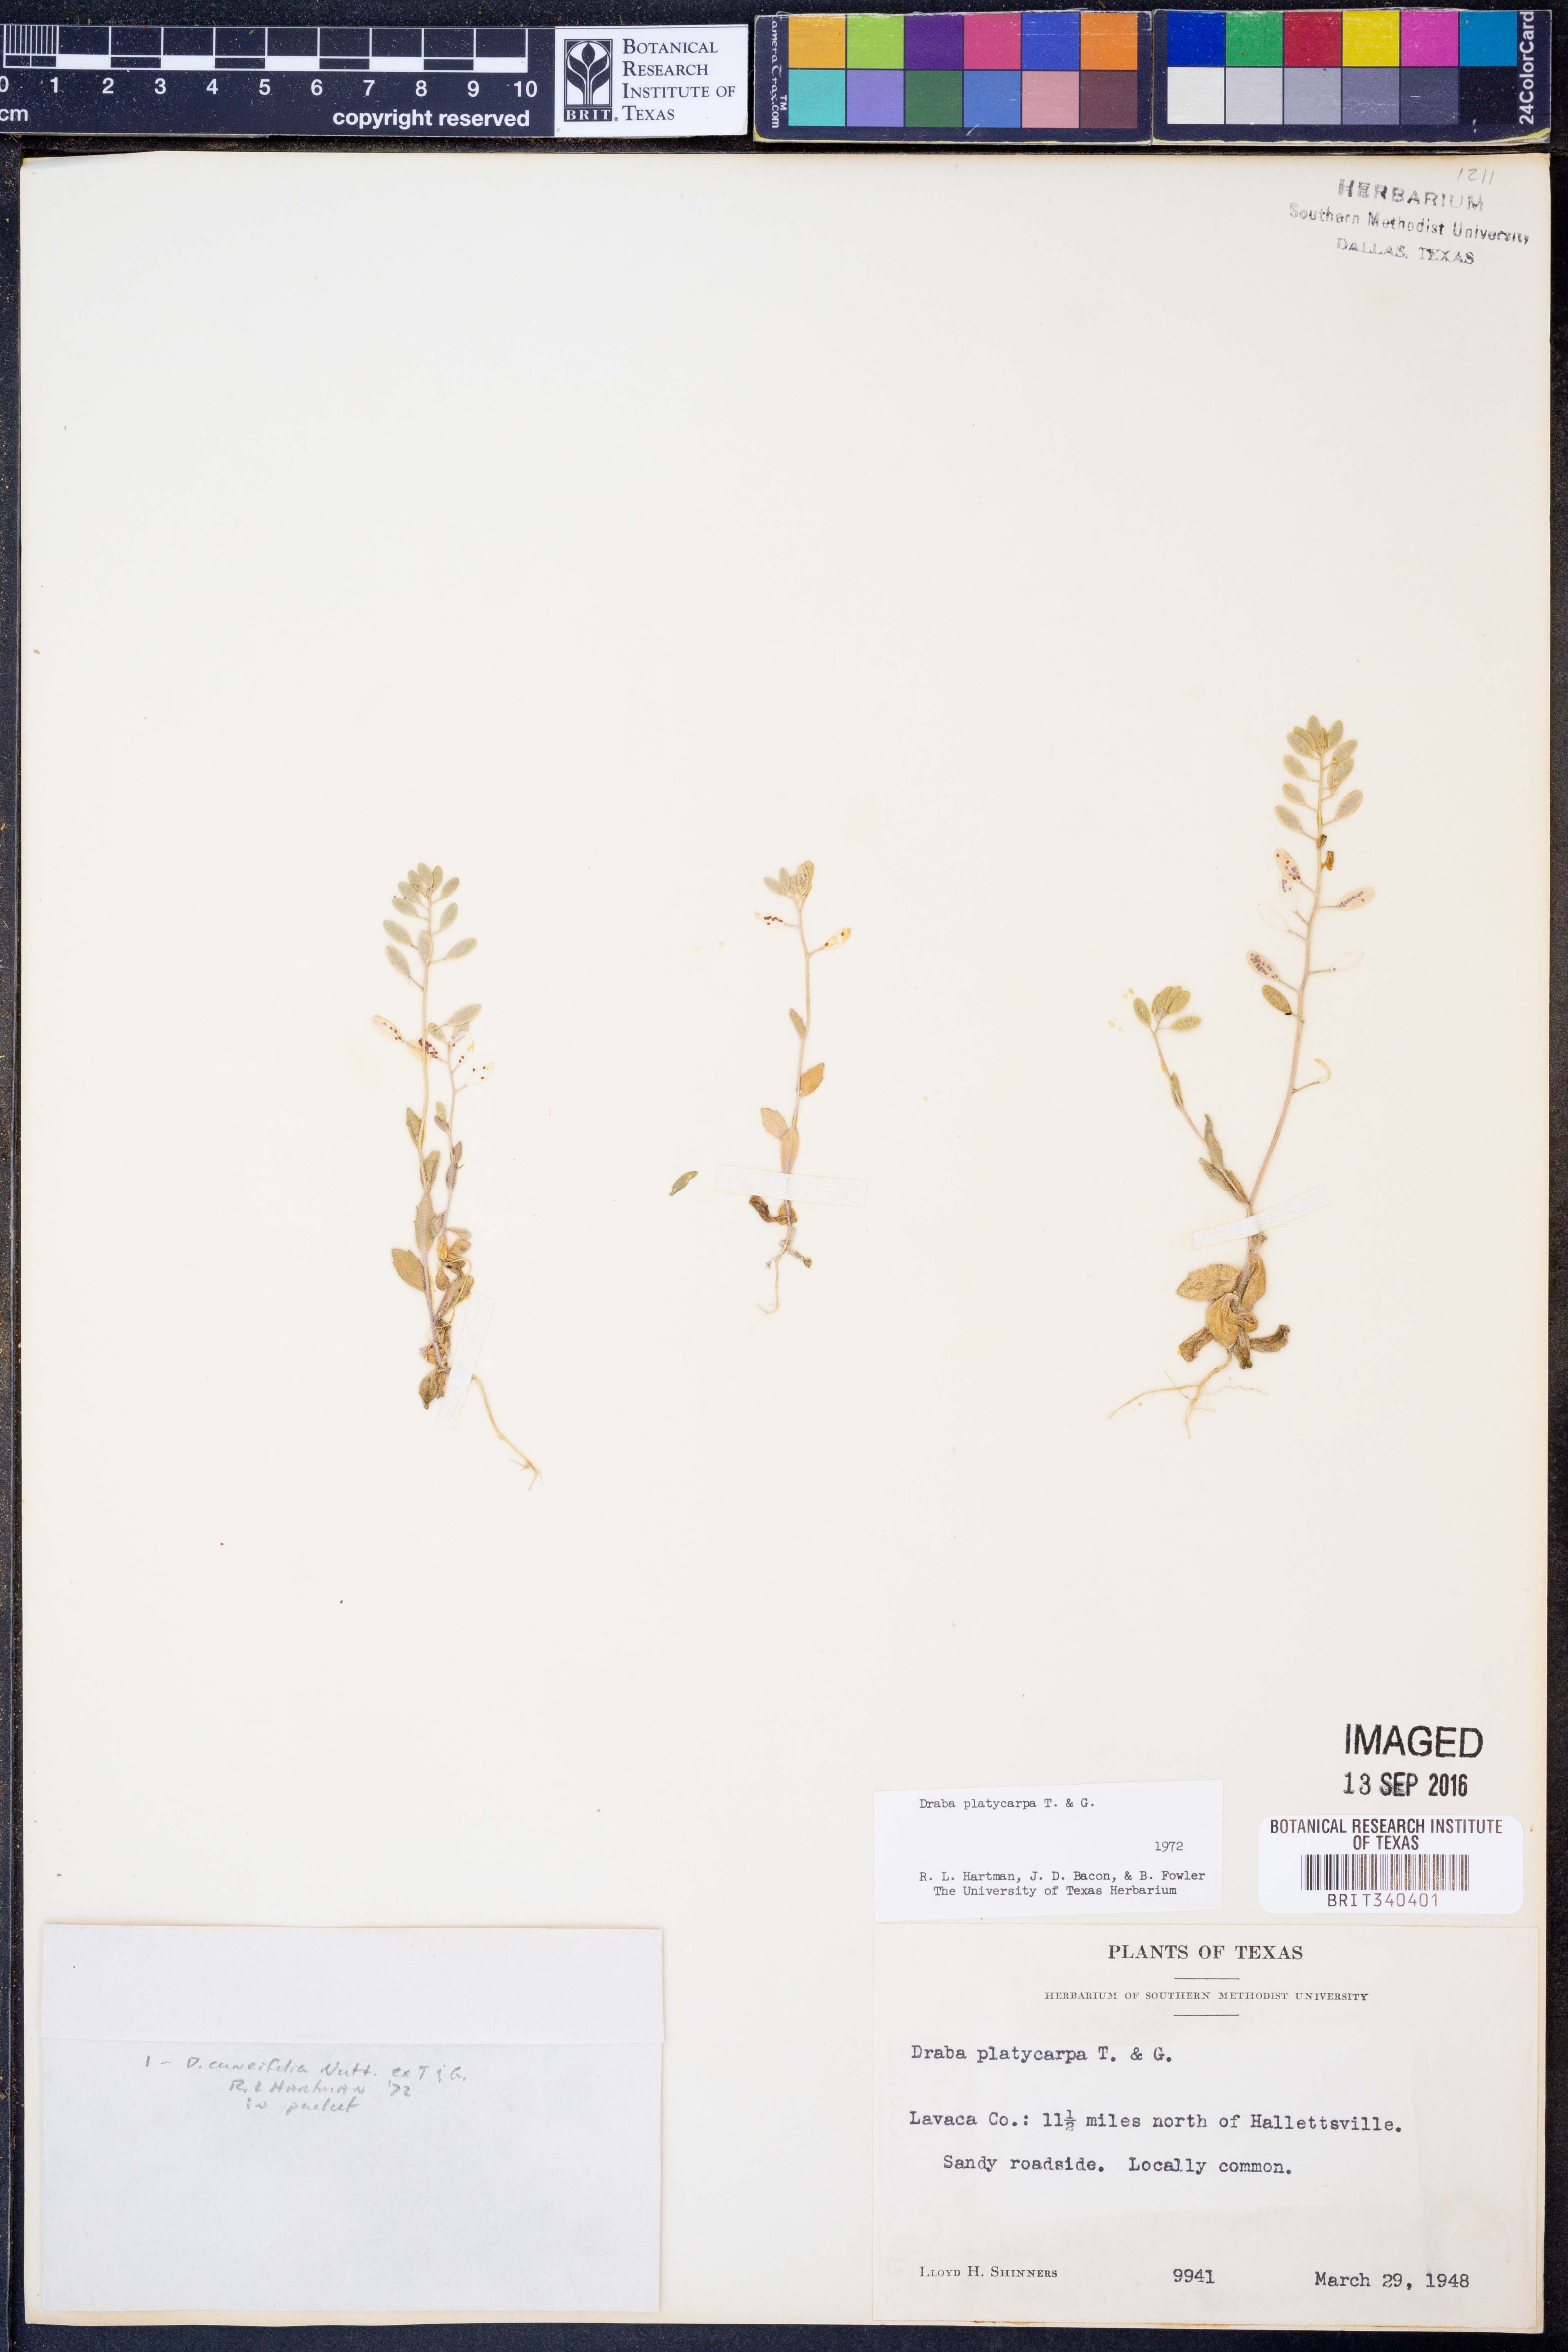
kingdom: Plantae
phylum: Tracheophyta
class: Magnoliopsida
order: Brassicales
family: Brassicaceae
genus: Tomostima
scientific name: Tomostima platycarpa
